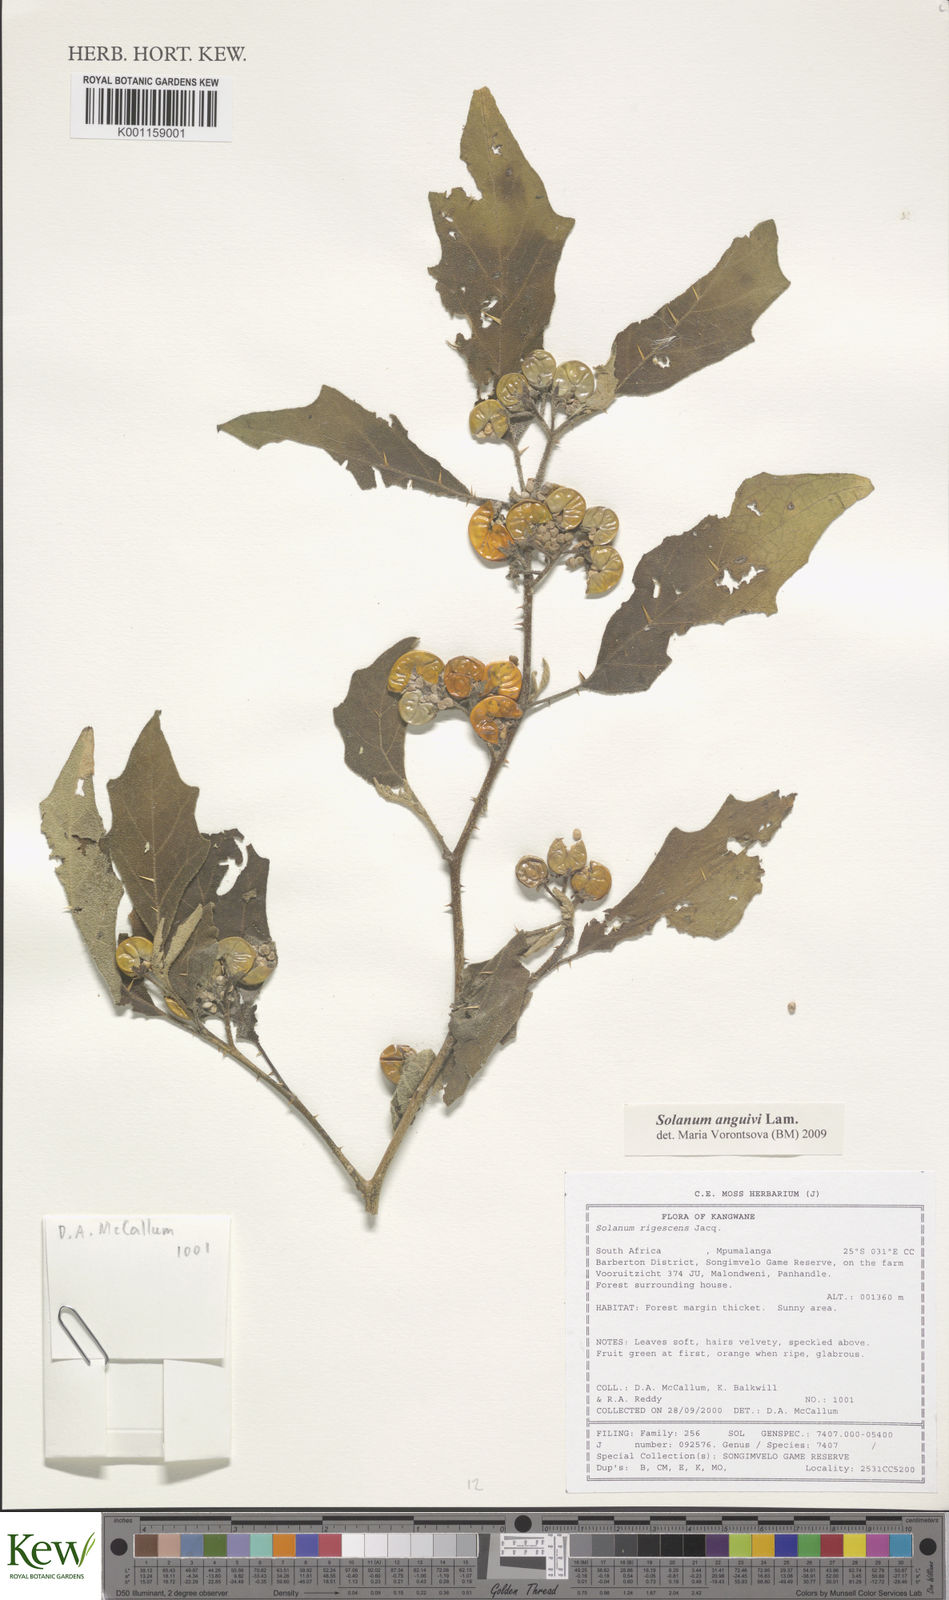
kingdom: Plantae
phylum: Tracheophyta
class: Magnoliopsida
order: Solanales
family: Solanaceae
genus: Solanum
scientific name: Solanum anguivi
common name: Forest bitterberry
